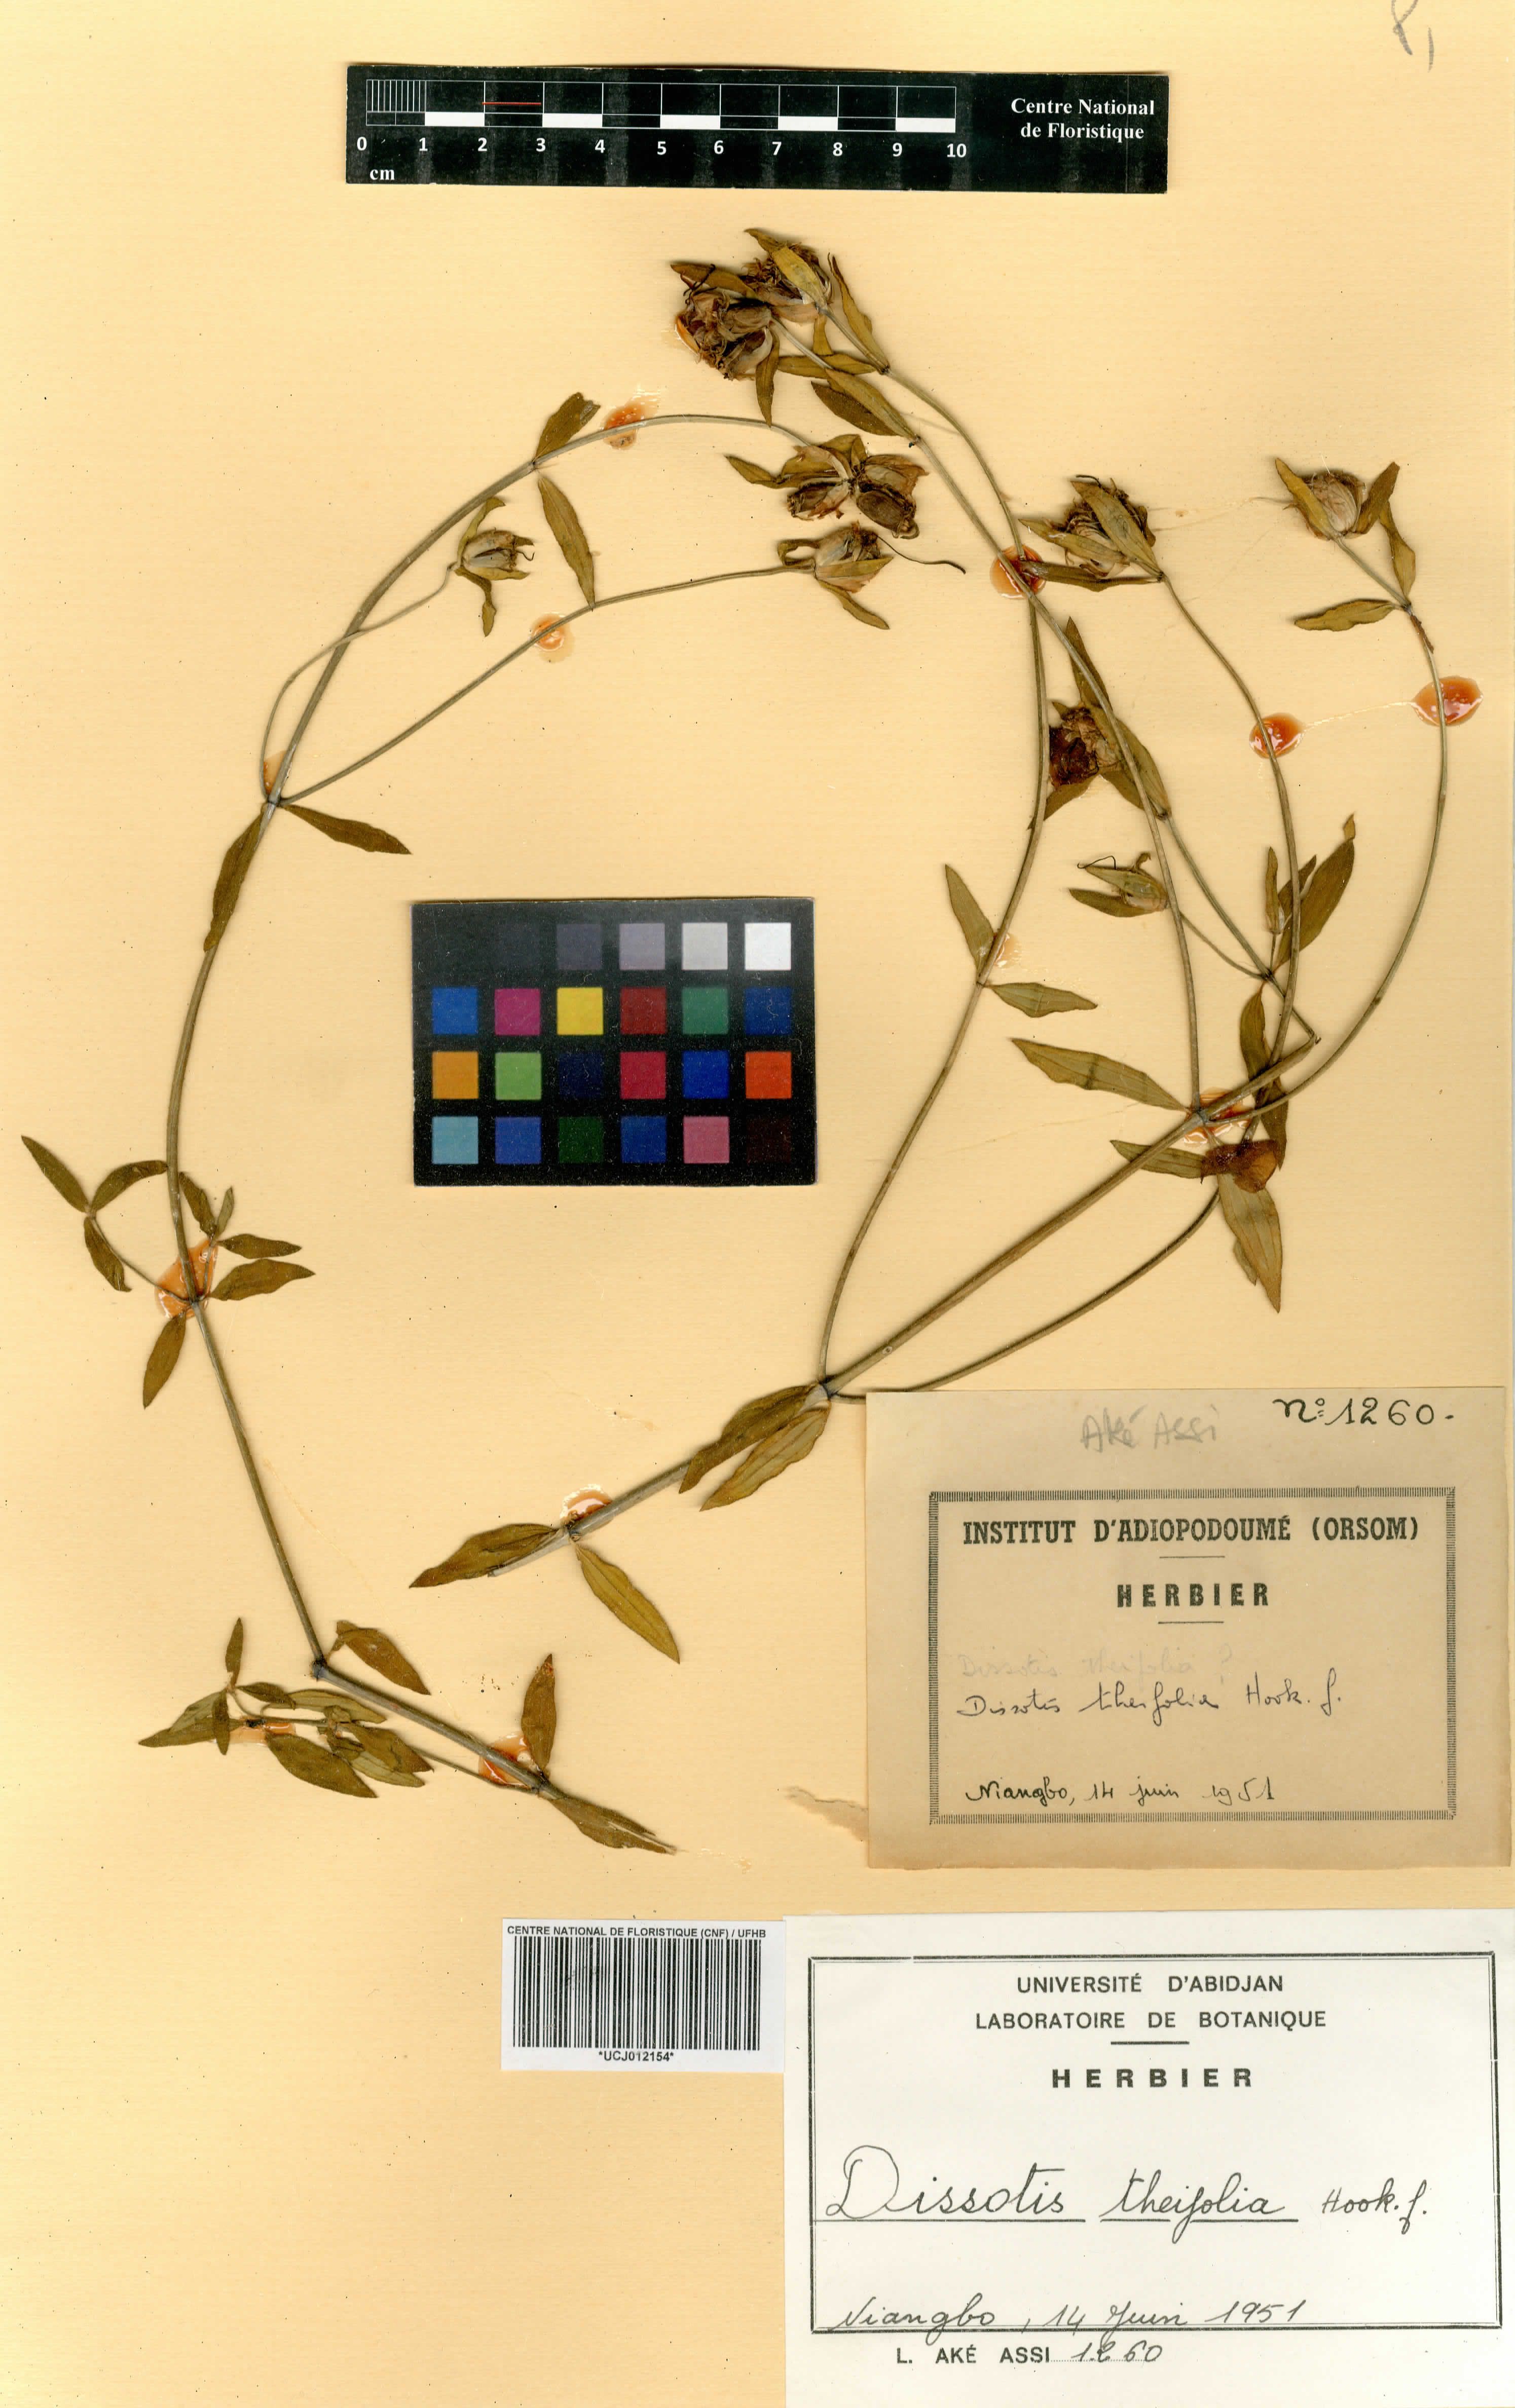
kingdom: Plantae
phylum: Tracheophyta
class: Magnoliopsida
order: Myrtales
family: Melastomataceae
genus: Melastomastrum
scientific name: Melastomastrum theifolium
